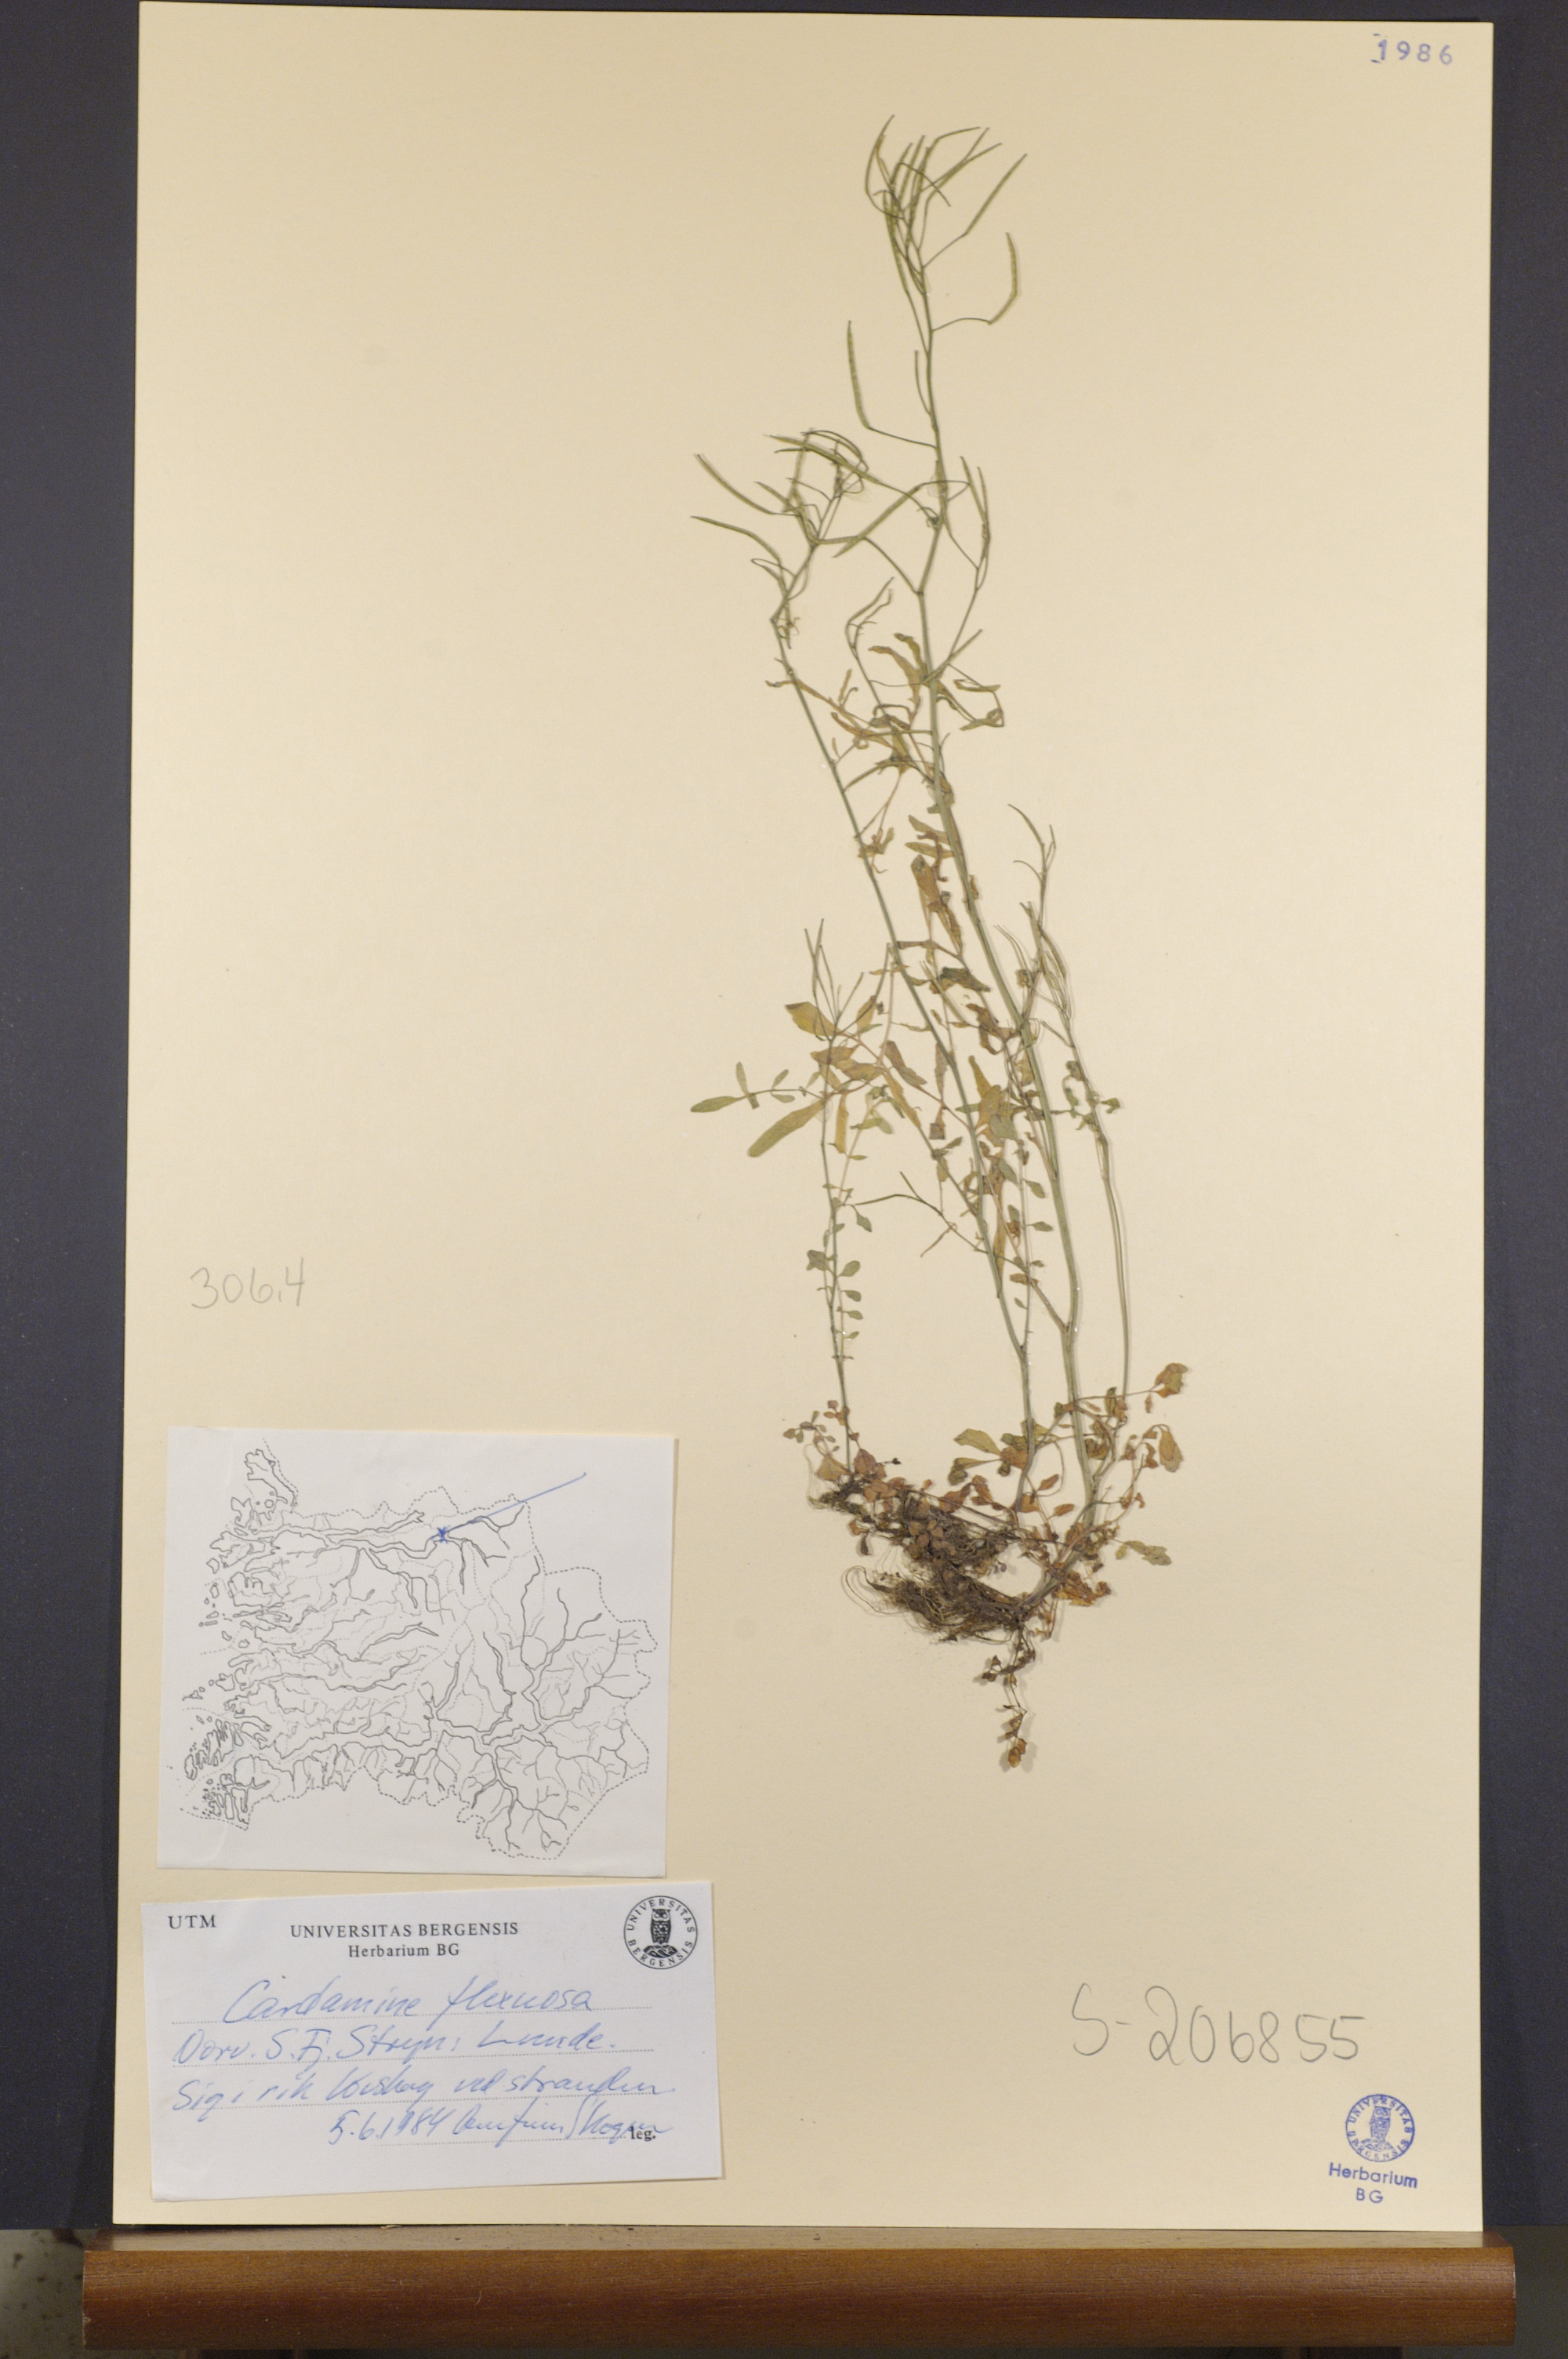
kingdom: Plantae
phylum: Tracheophyta
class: Magnoliopsida
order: Brassicales
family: Brassicaceae
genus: Cardamine
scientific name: Cardamine flexuosa
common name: Woodland bittercress
